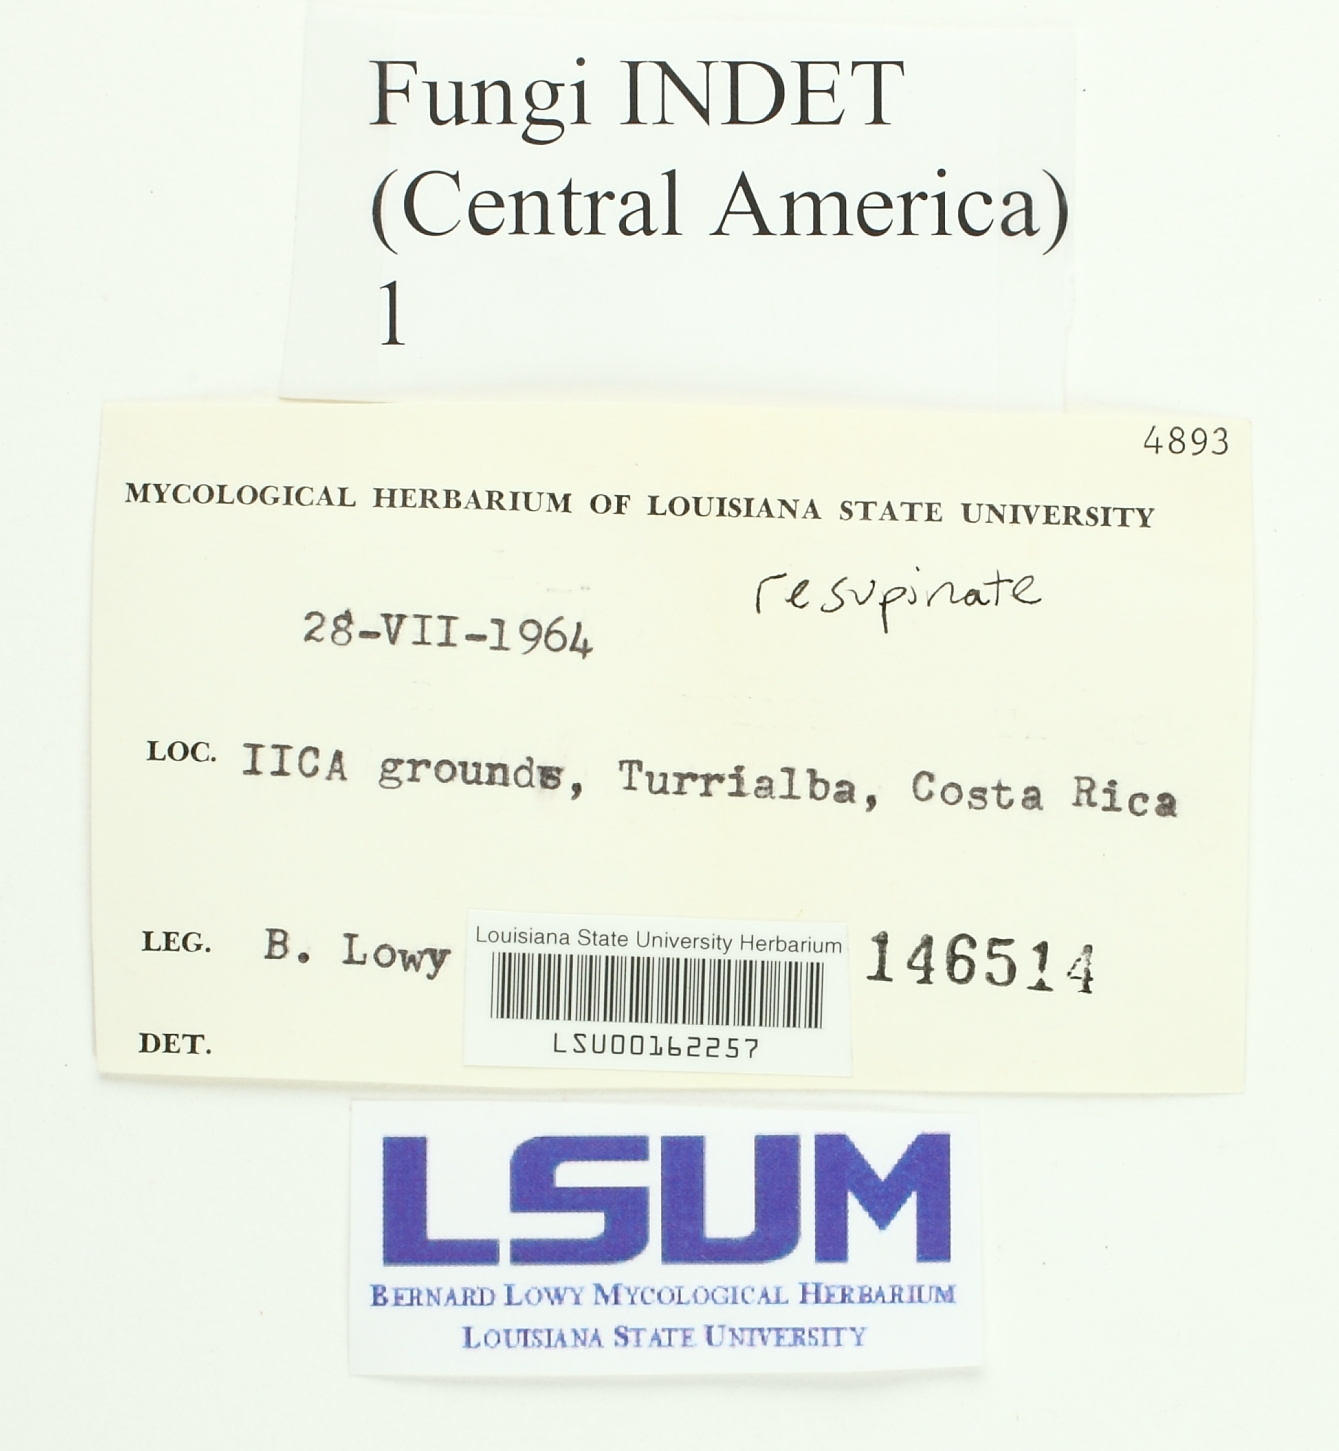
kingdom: Fungi
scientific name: Fungi
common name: Fungi
